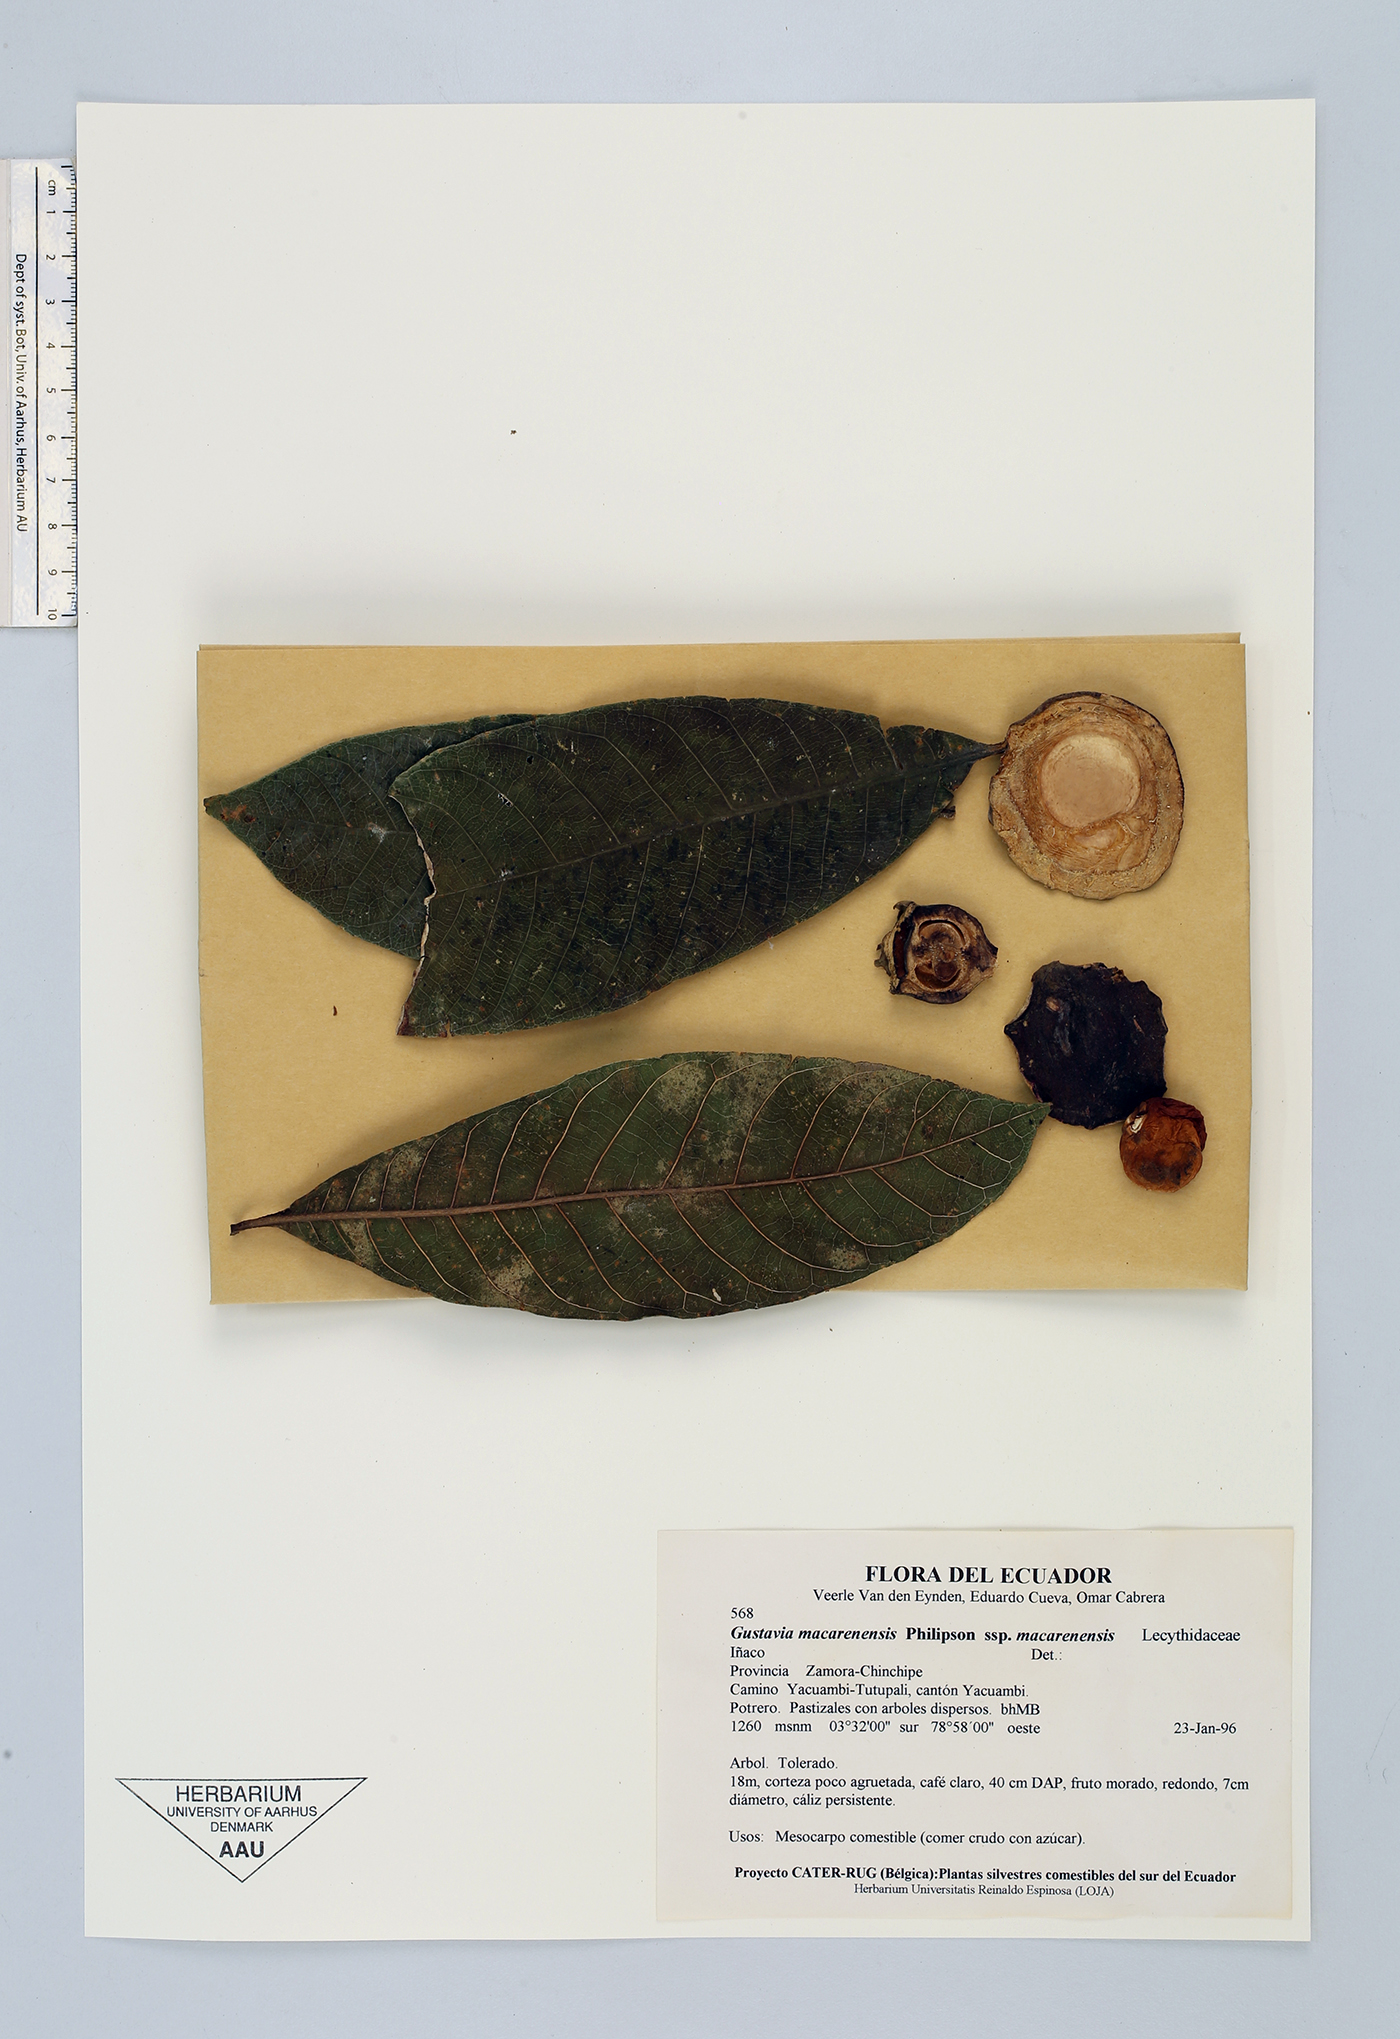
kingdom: Plantae
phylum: Tracheophyta
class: Magnoliopsida
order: Ericales
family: Lecythidaceae
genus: Gustavia
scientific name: Gustavia macarenensis
